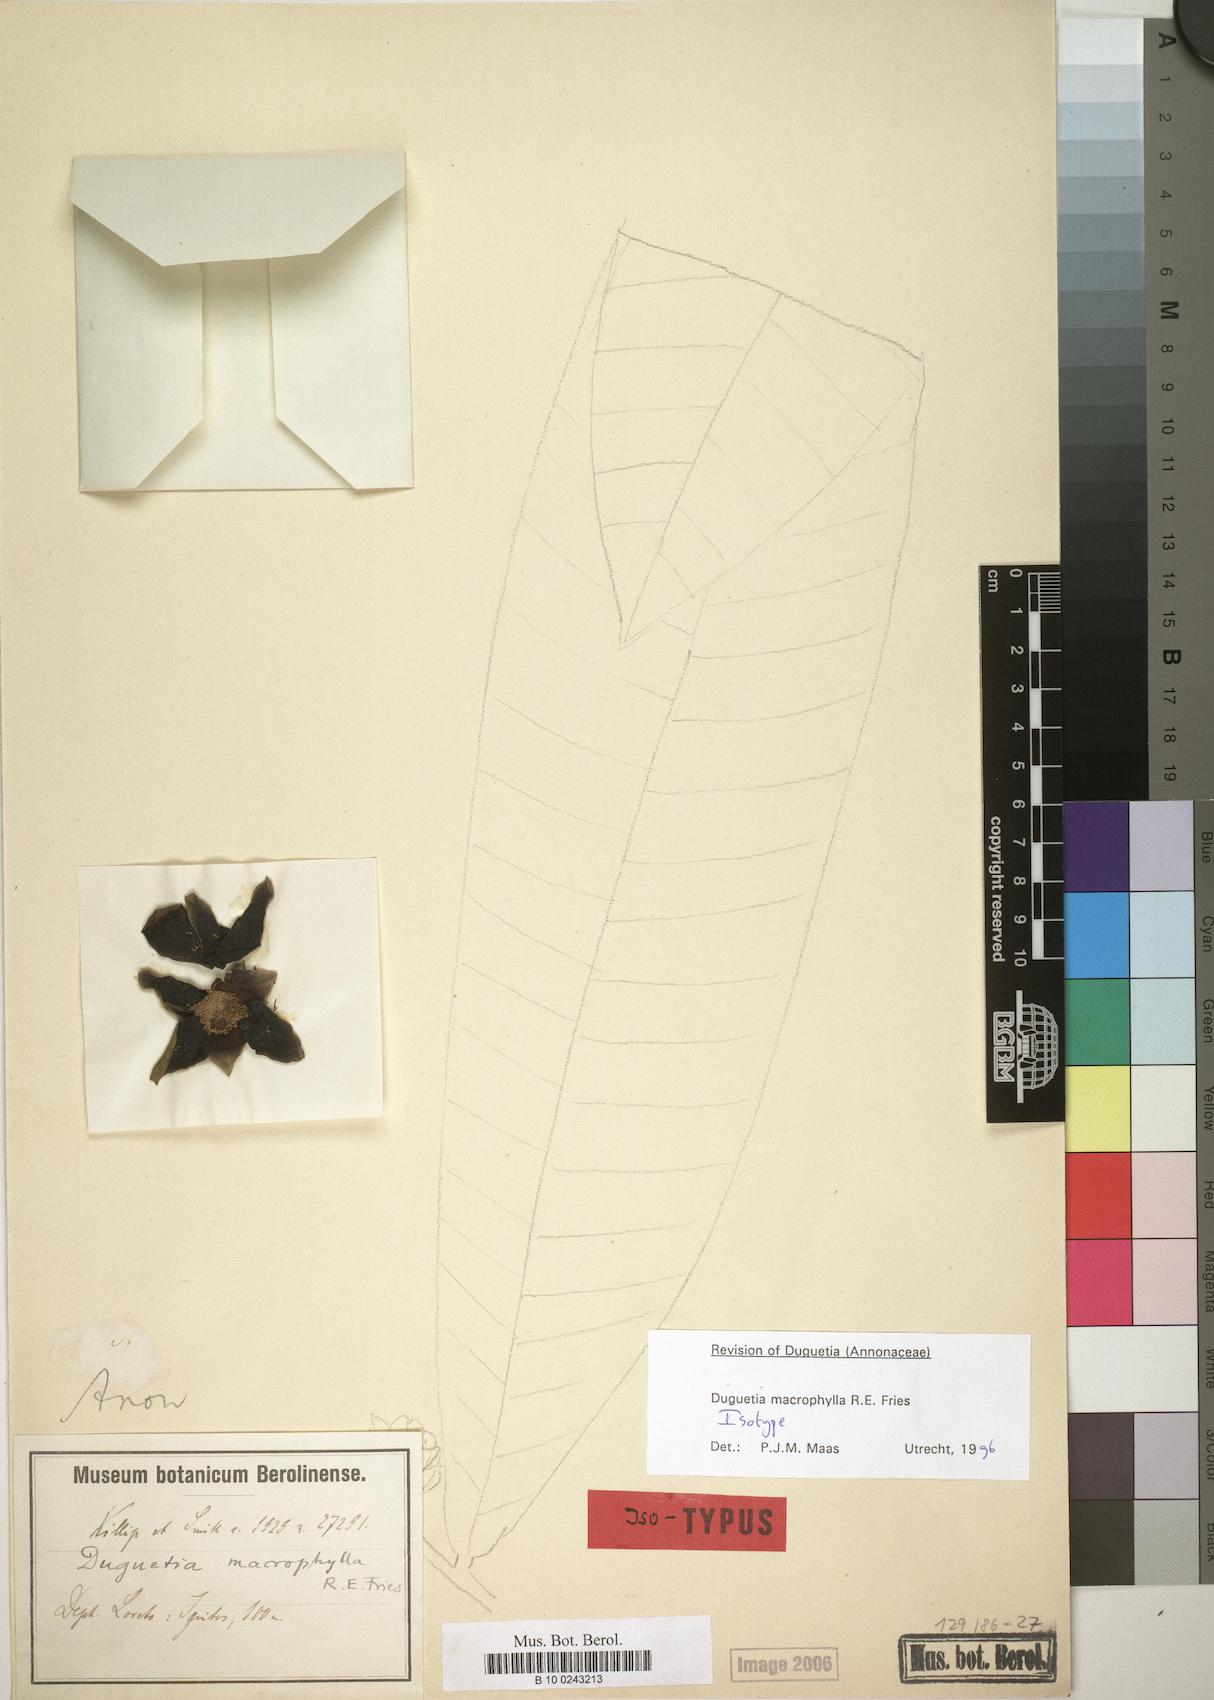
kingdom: Plantae
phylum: Tracheophyta
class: Magnoliopsida
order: Magnoliales
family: Annonaceae
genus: Duguetia
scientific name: Duguetia macrophylla
